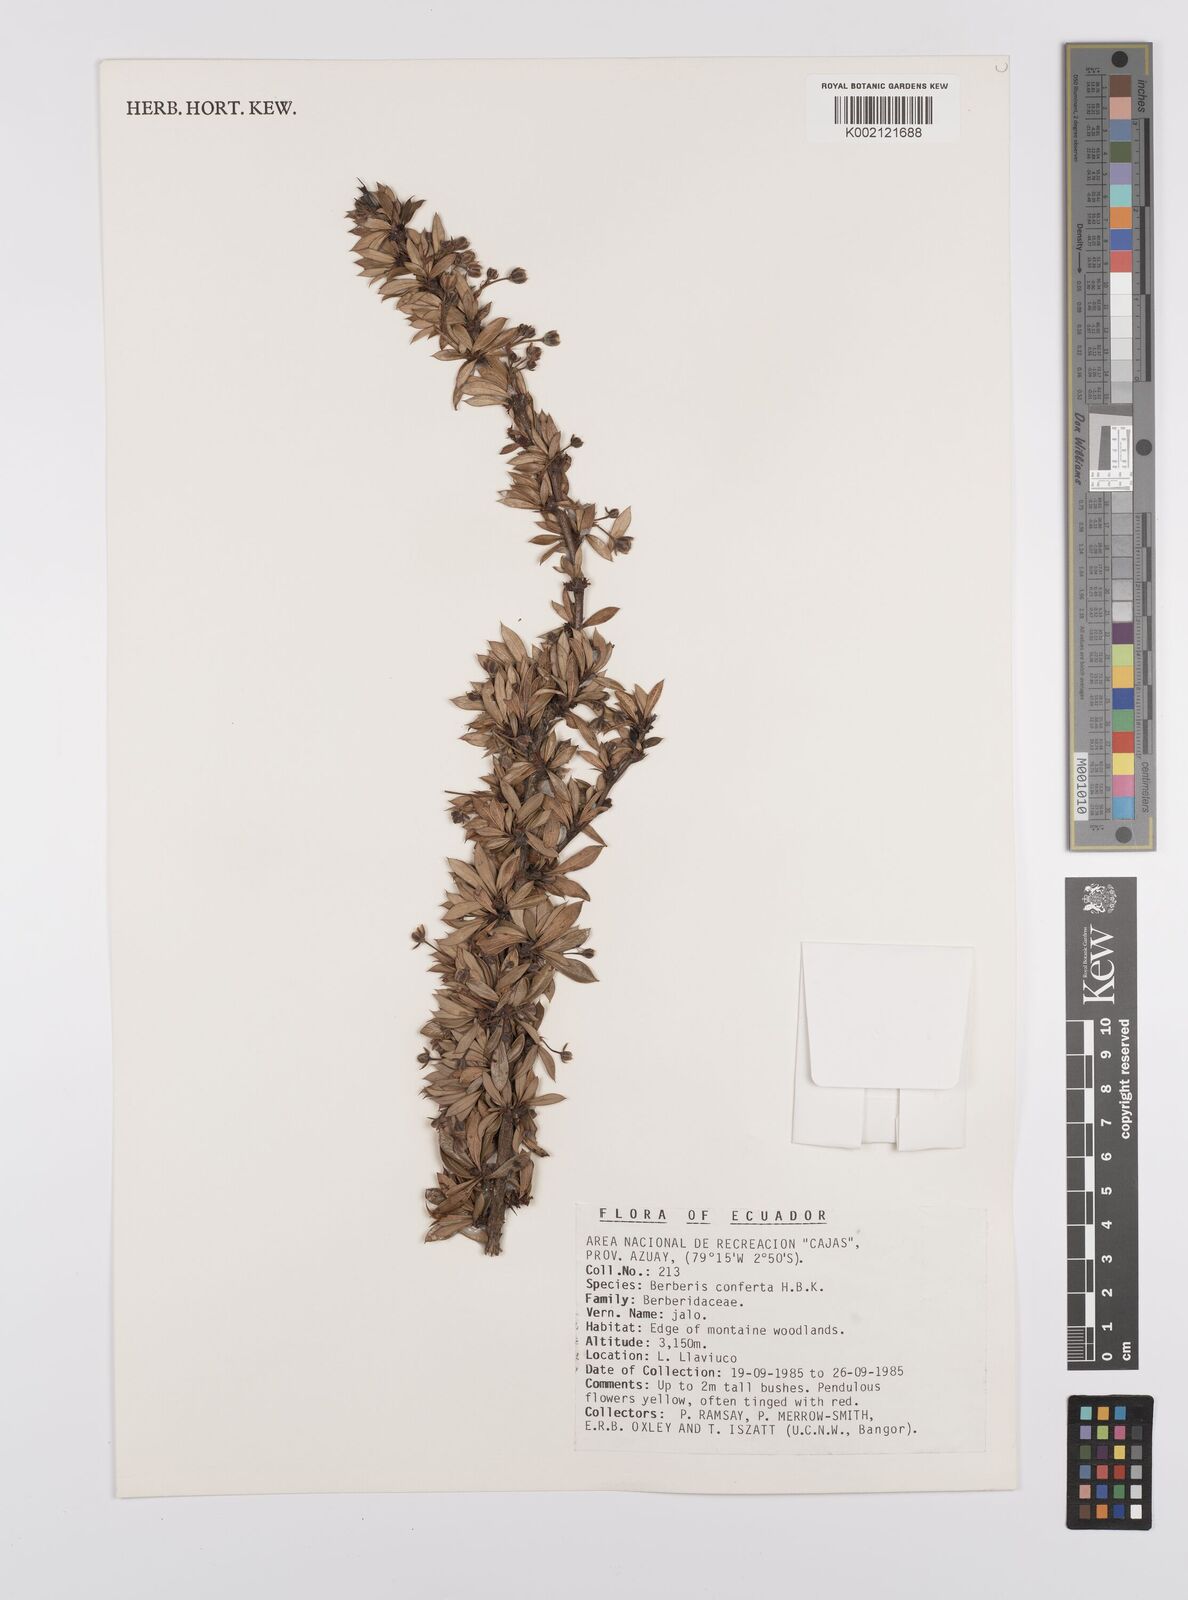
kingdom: Plantae
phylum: Tracheophyta
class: Magnoliopsida
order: Ranunculales
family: Berberidaceae
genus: Berberis
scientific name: Berberis lutea
